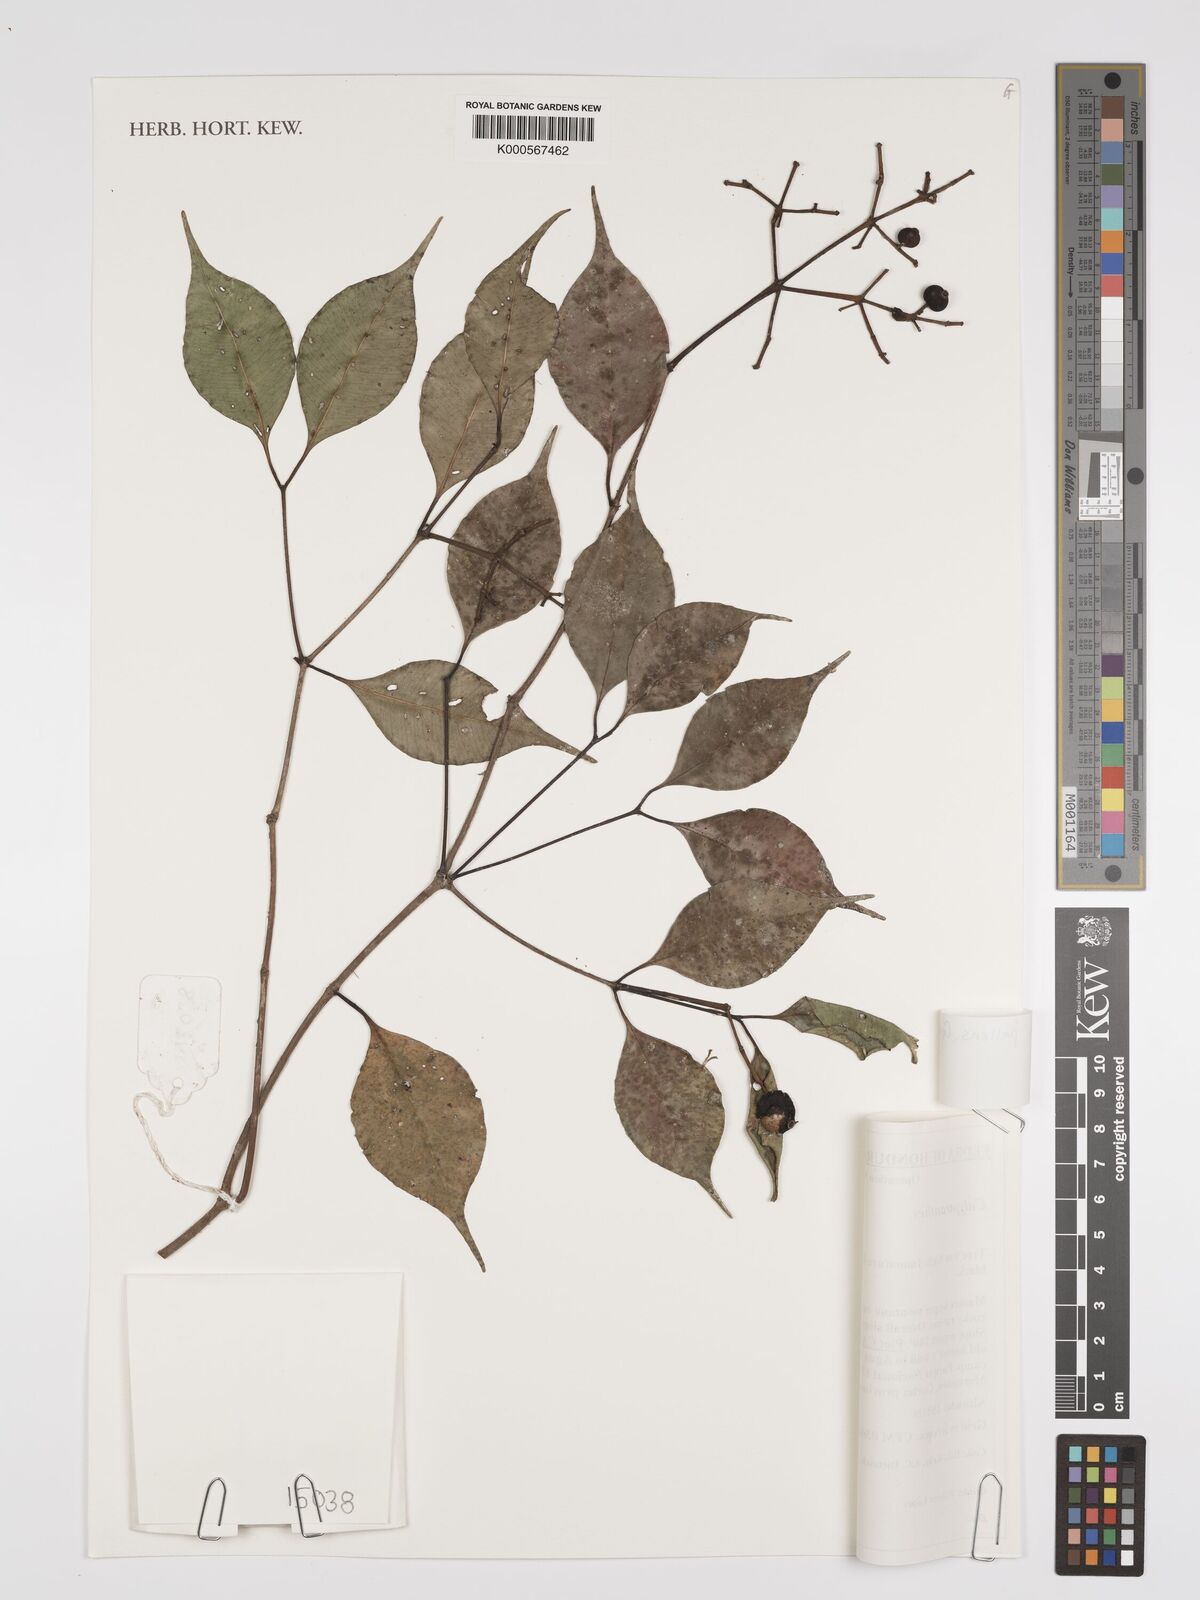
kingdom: Plantae
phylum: Tracheophyta
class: Magnoliopsida
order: Myrtales
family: Myrtaceae
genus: Myrcia
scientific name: Myrcia neopallens
